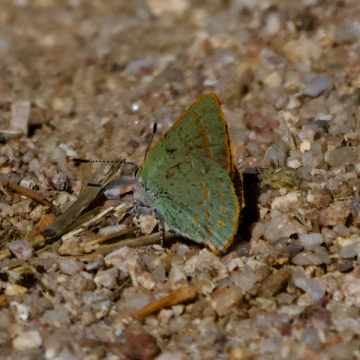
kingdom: Animalia
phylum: Arthropoda
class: Insecta
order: Lepidoptera
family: Lycaenidae
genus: Erora
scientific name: Erora quaderna
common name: Arizona Hairstreak
